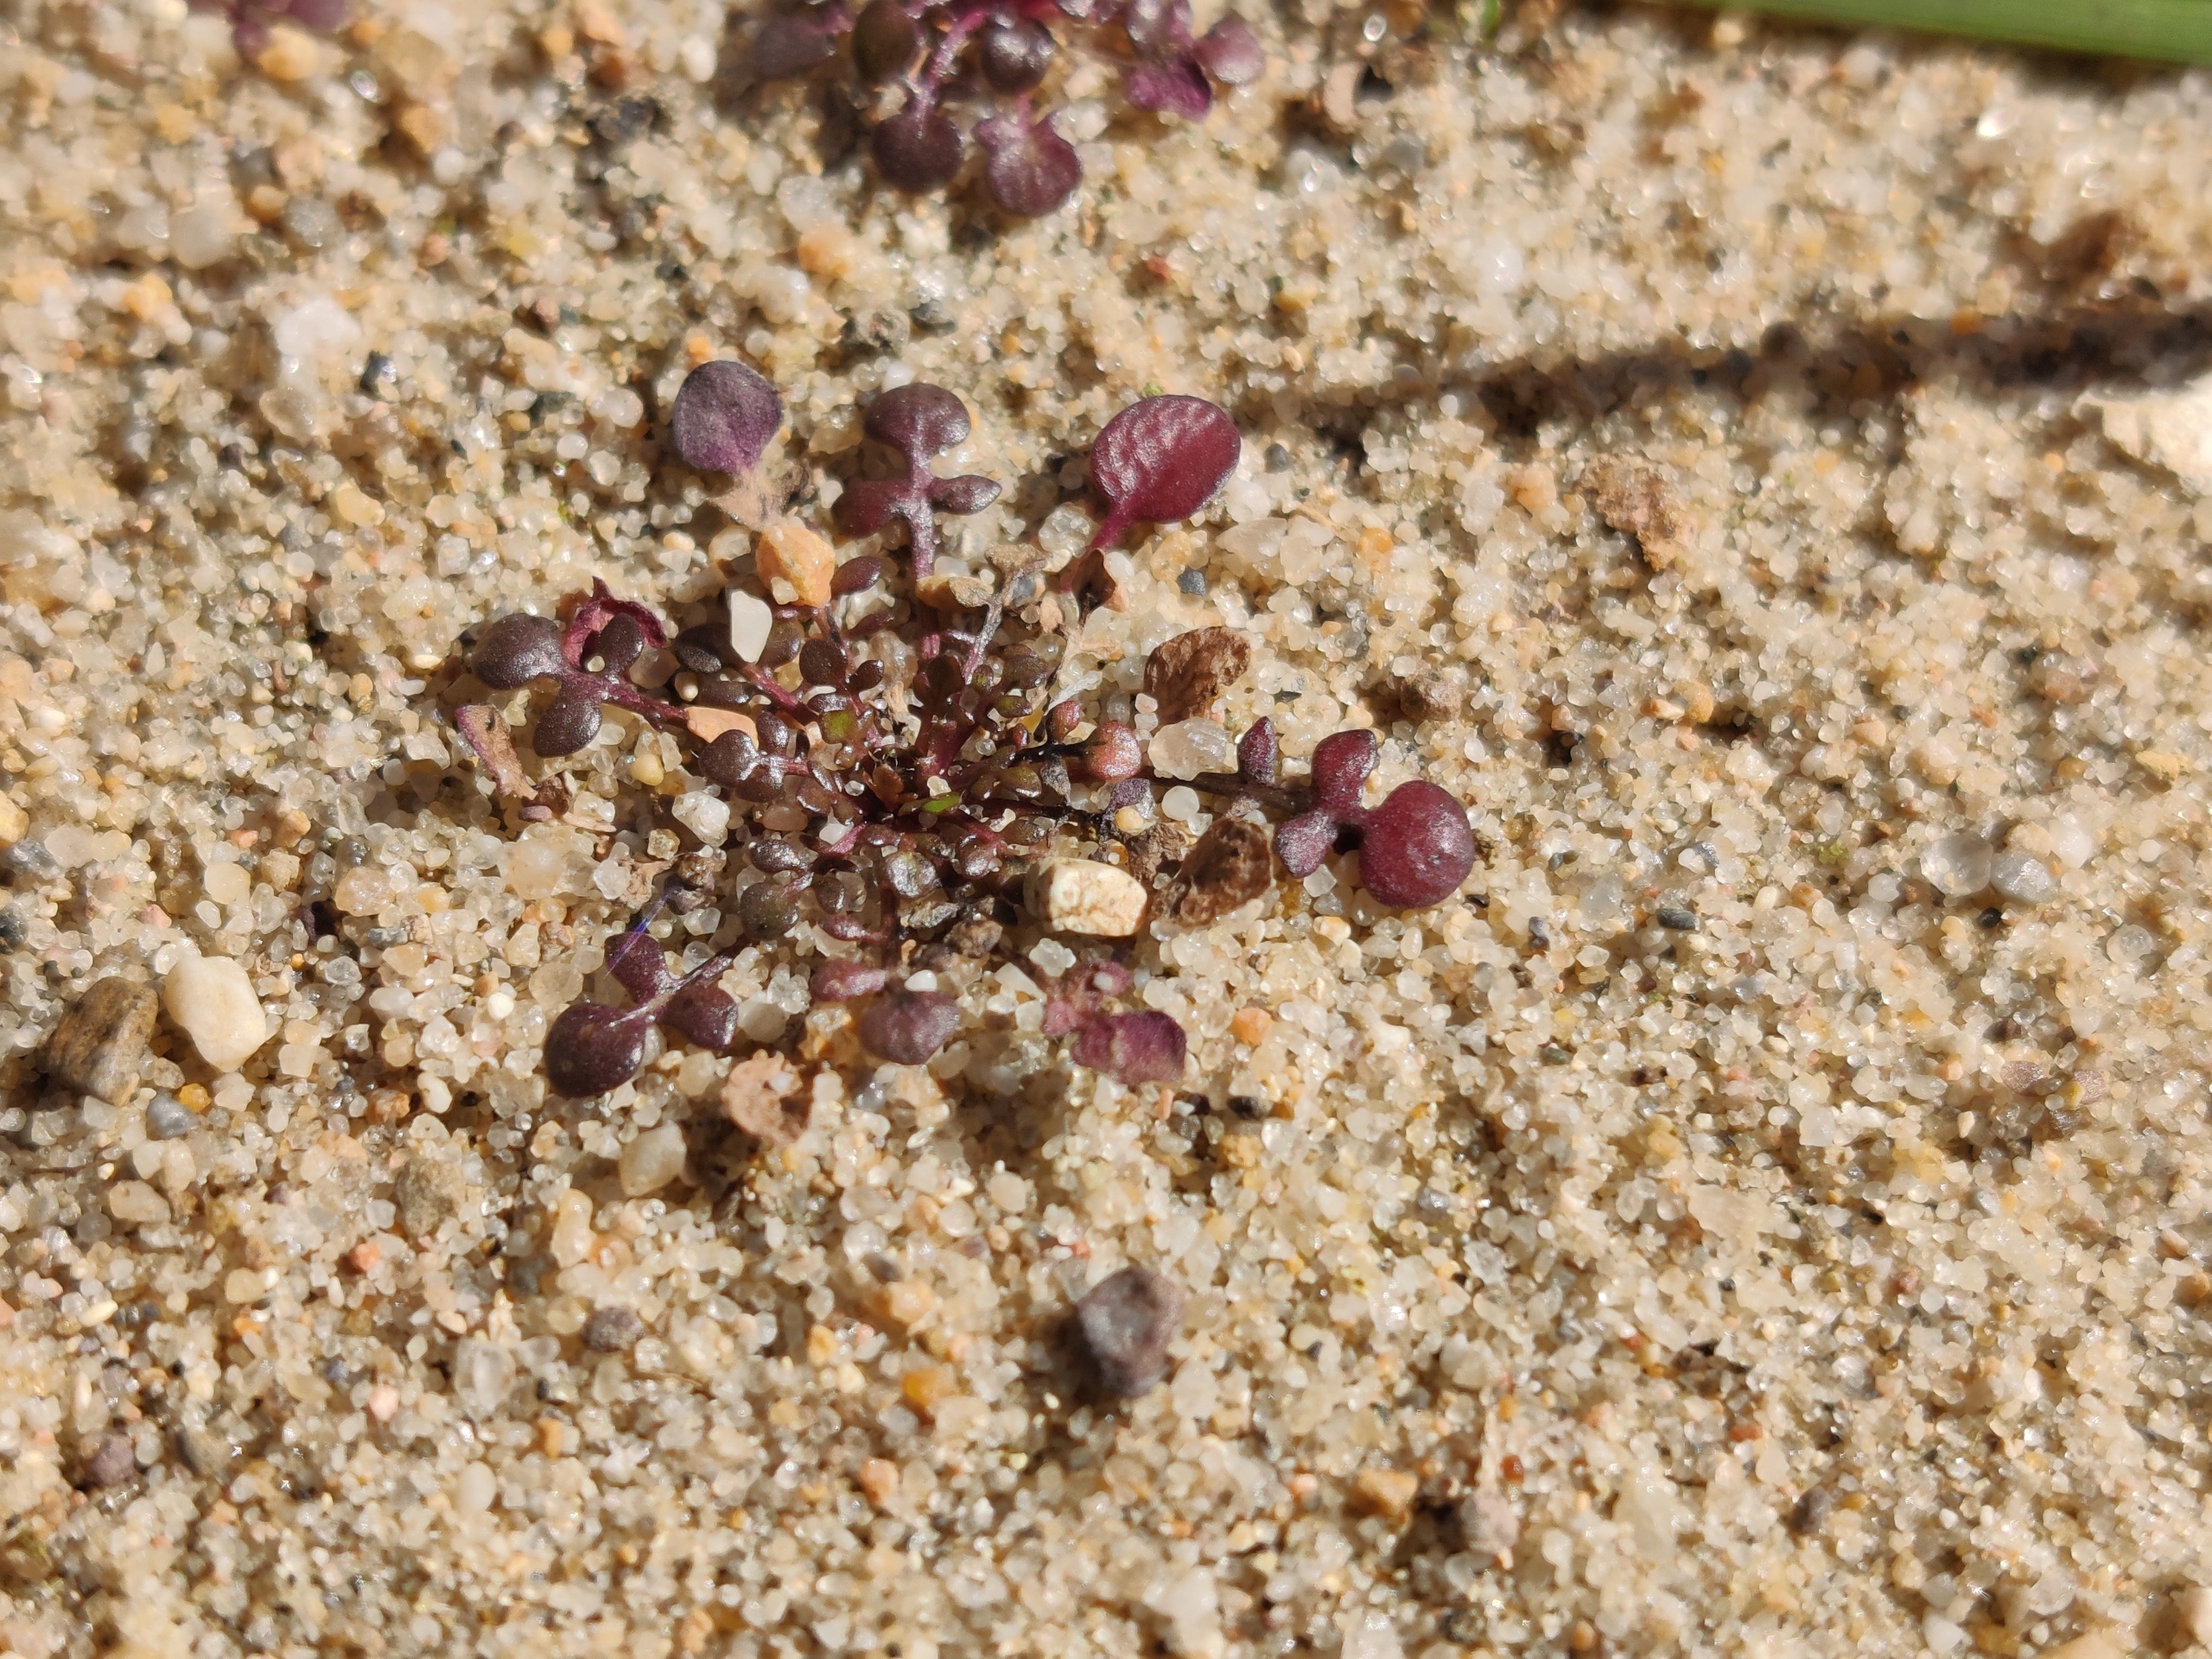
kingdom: Plantae
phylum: Tracheophyta
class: Magnoliopsida
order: Brassicales
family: Brassicaceae
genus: Teesdalia
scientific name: Teesdalia nudicaulis
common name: Flipkrave
